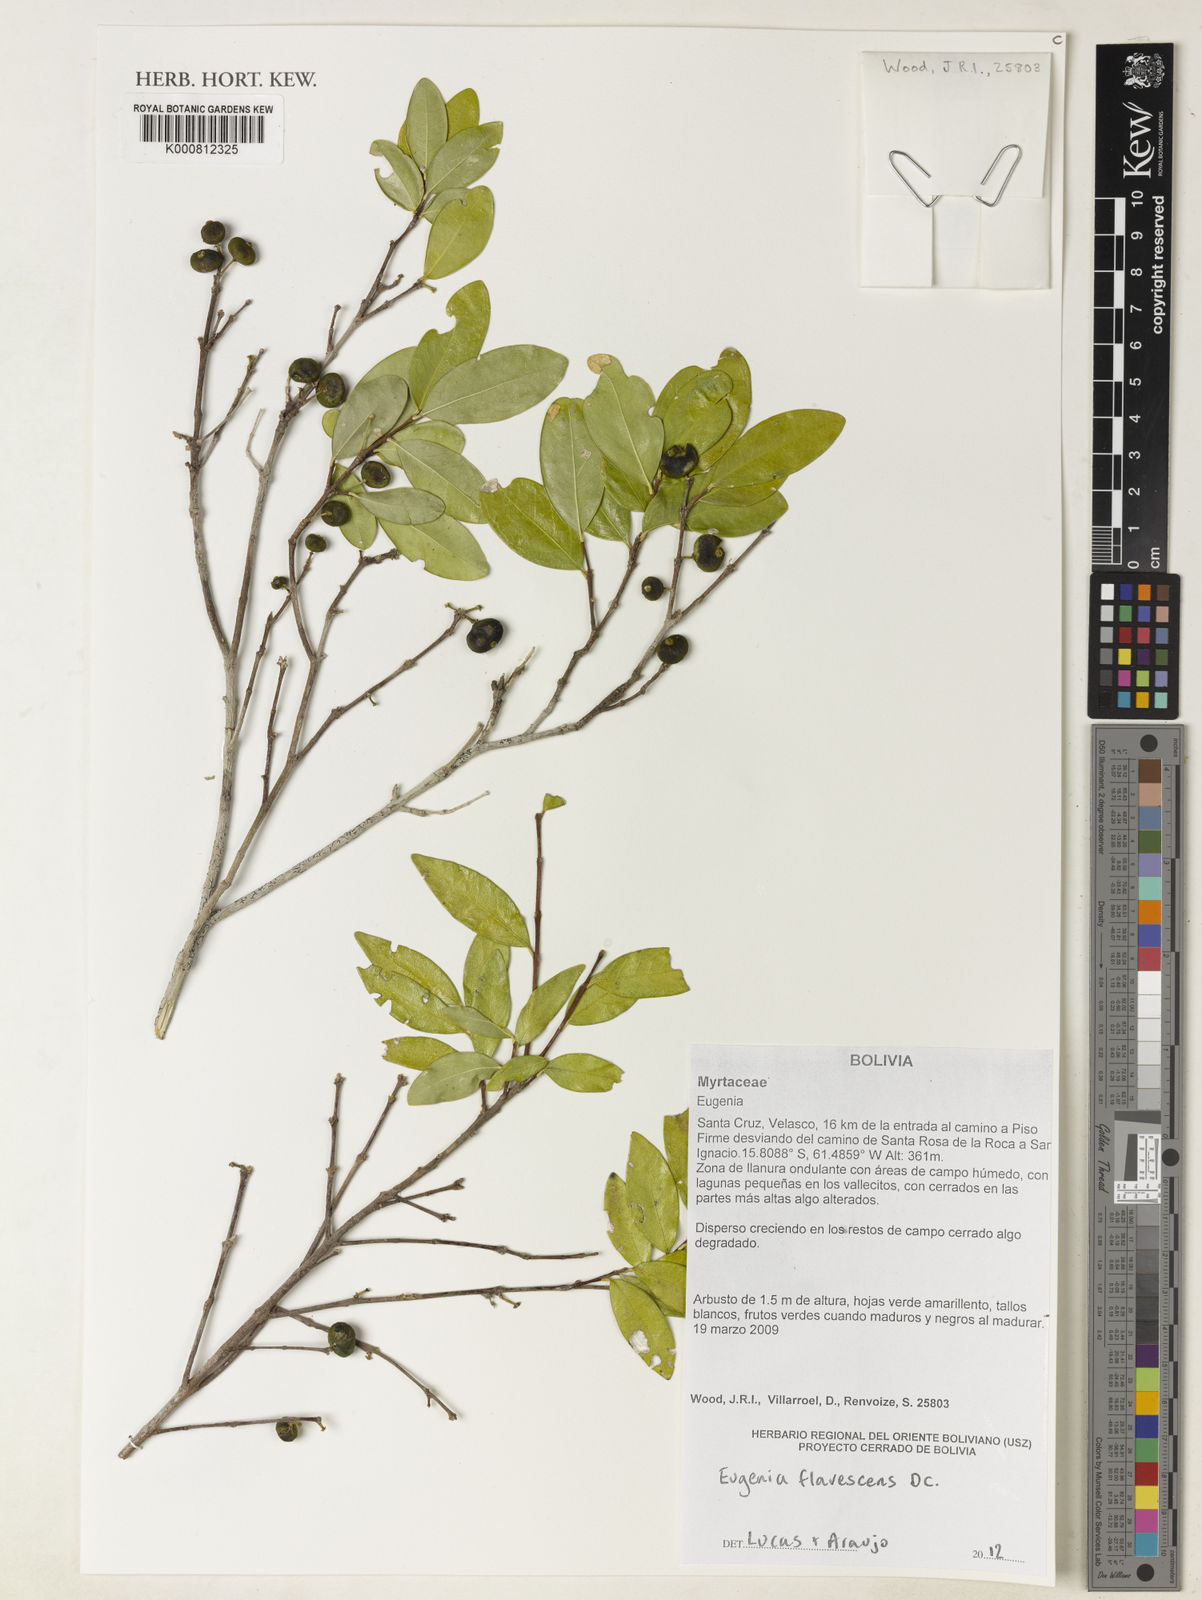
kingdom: Plantae
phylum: Tracheophyta
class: Magnoliopsida
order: Myrtales
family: Myrtaceae
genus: Eugenia
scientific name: Eugenia flavescens
